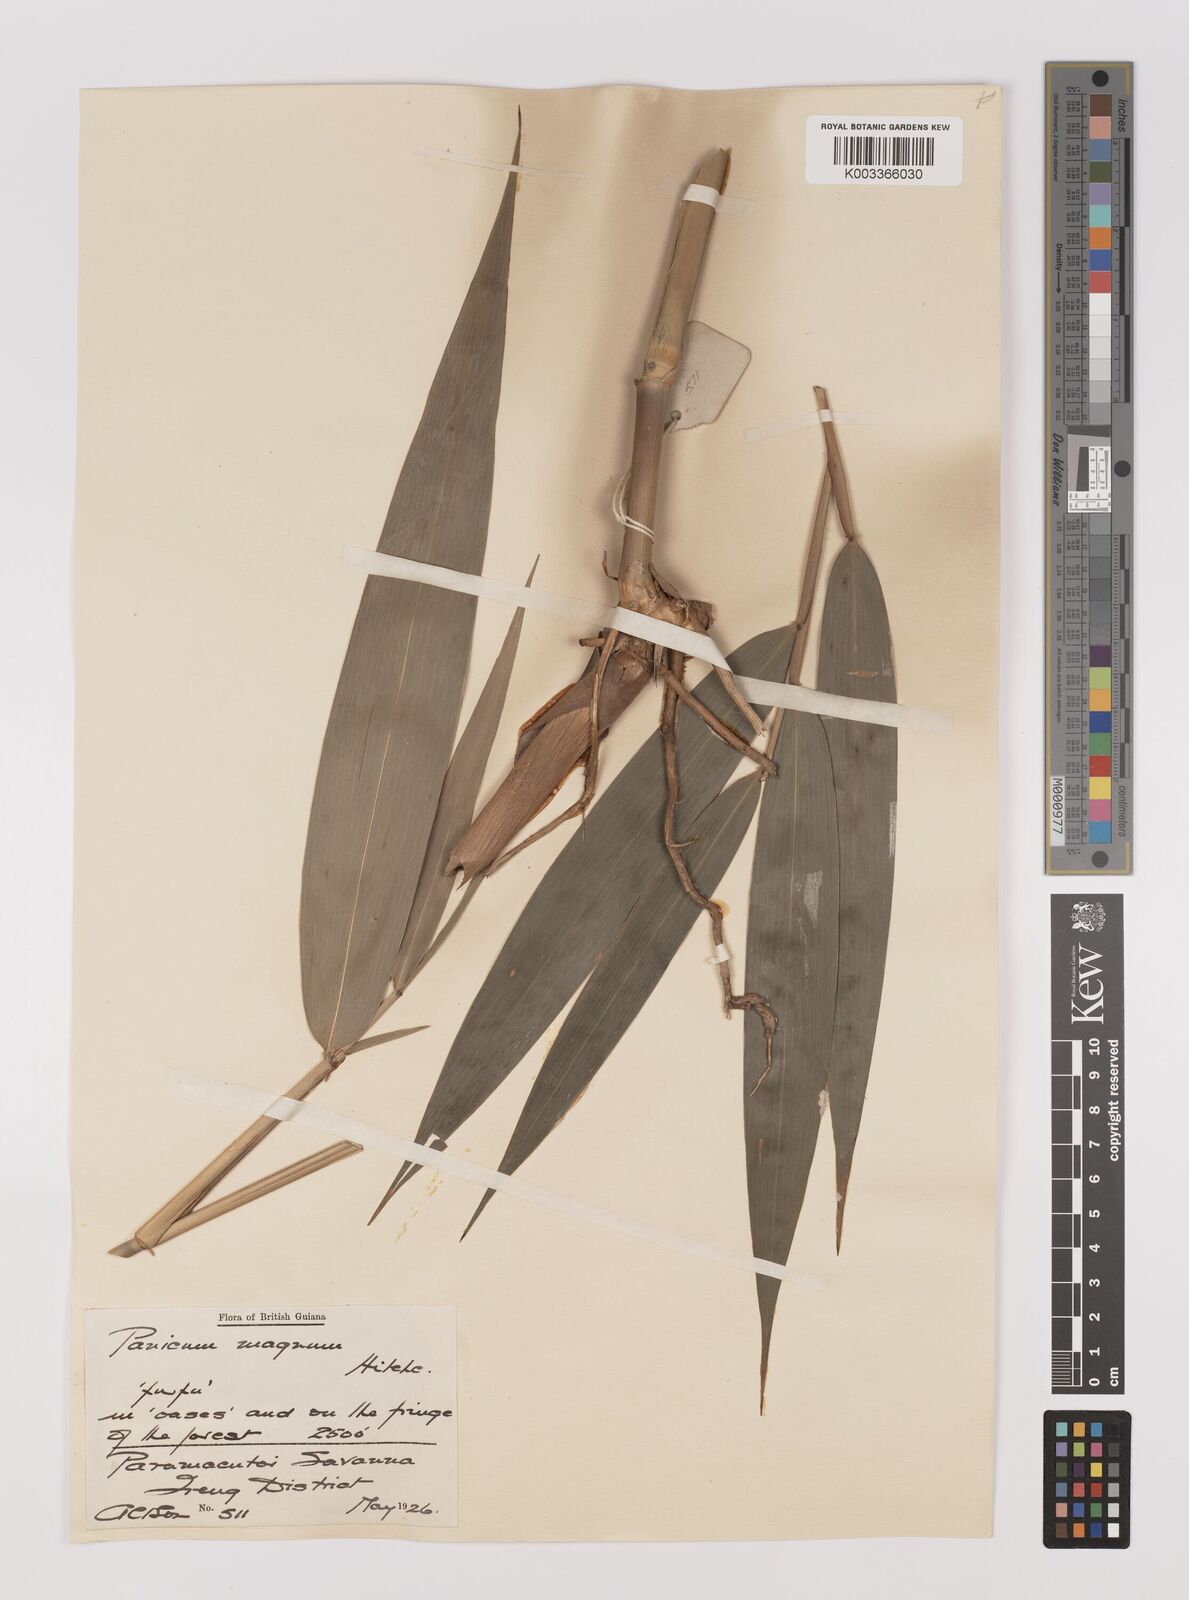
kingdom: Plantae
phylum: Tracheophyta
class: Liliopsida
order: Poales
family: Poaceae
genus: Ichnanthus
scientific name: Ichnanthus breviscrobs
